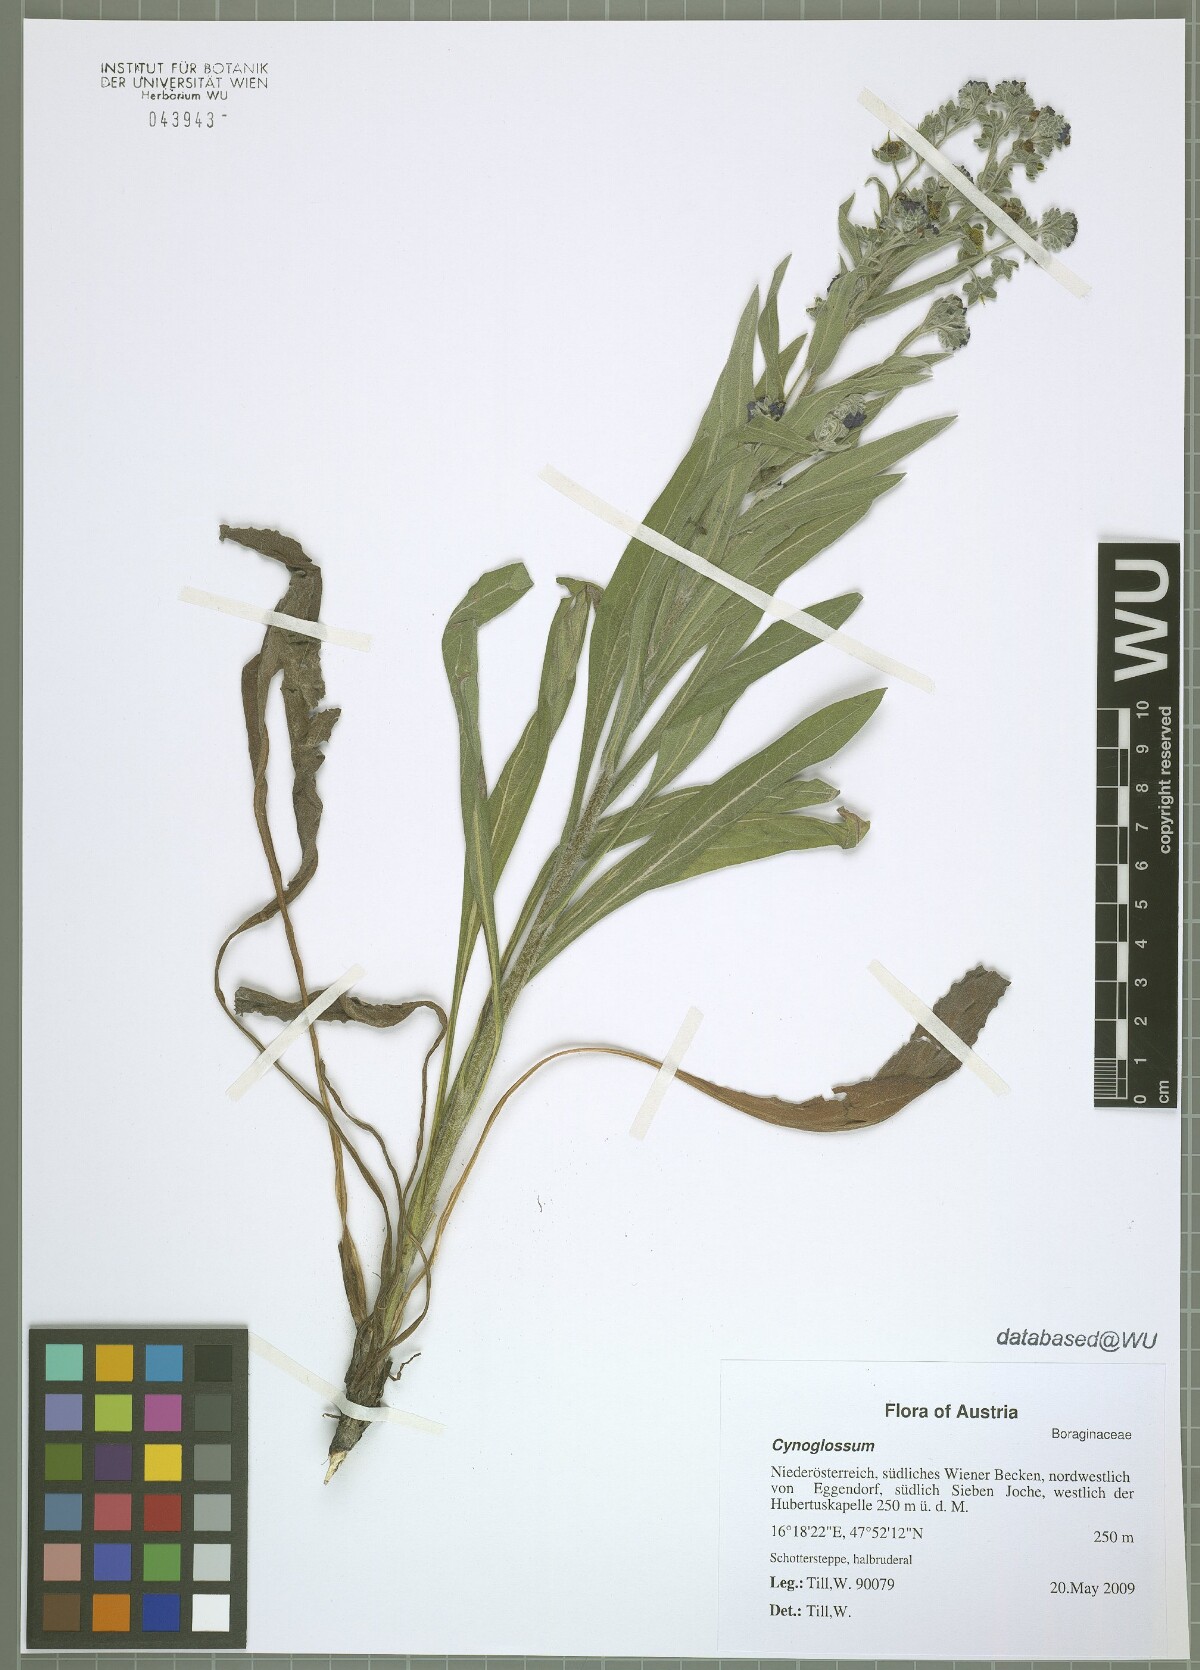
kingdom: Plantae
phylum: Tracheophyta
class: Magnoliopsida
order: Boraginales
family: Boraginaceae
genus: Cynoglossum
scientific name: Cynoglossum officinale
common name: Hound's-tongue
